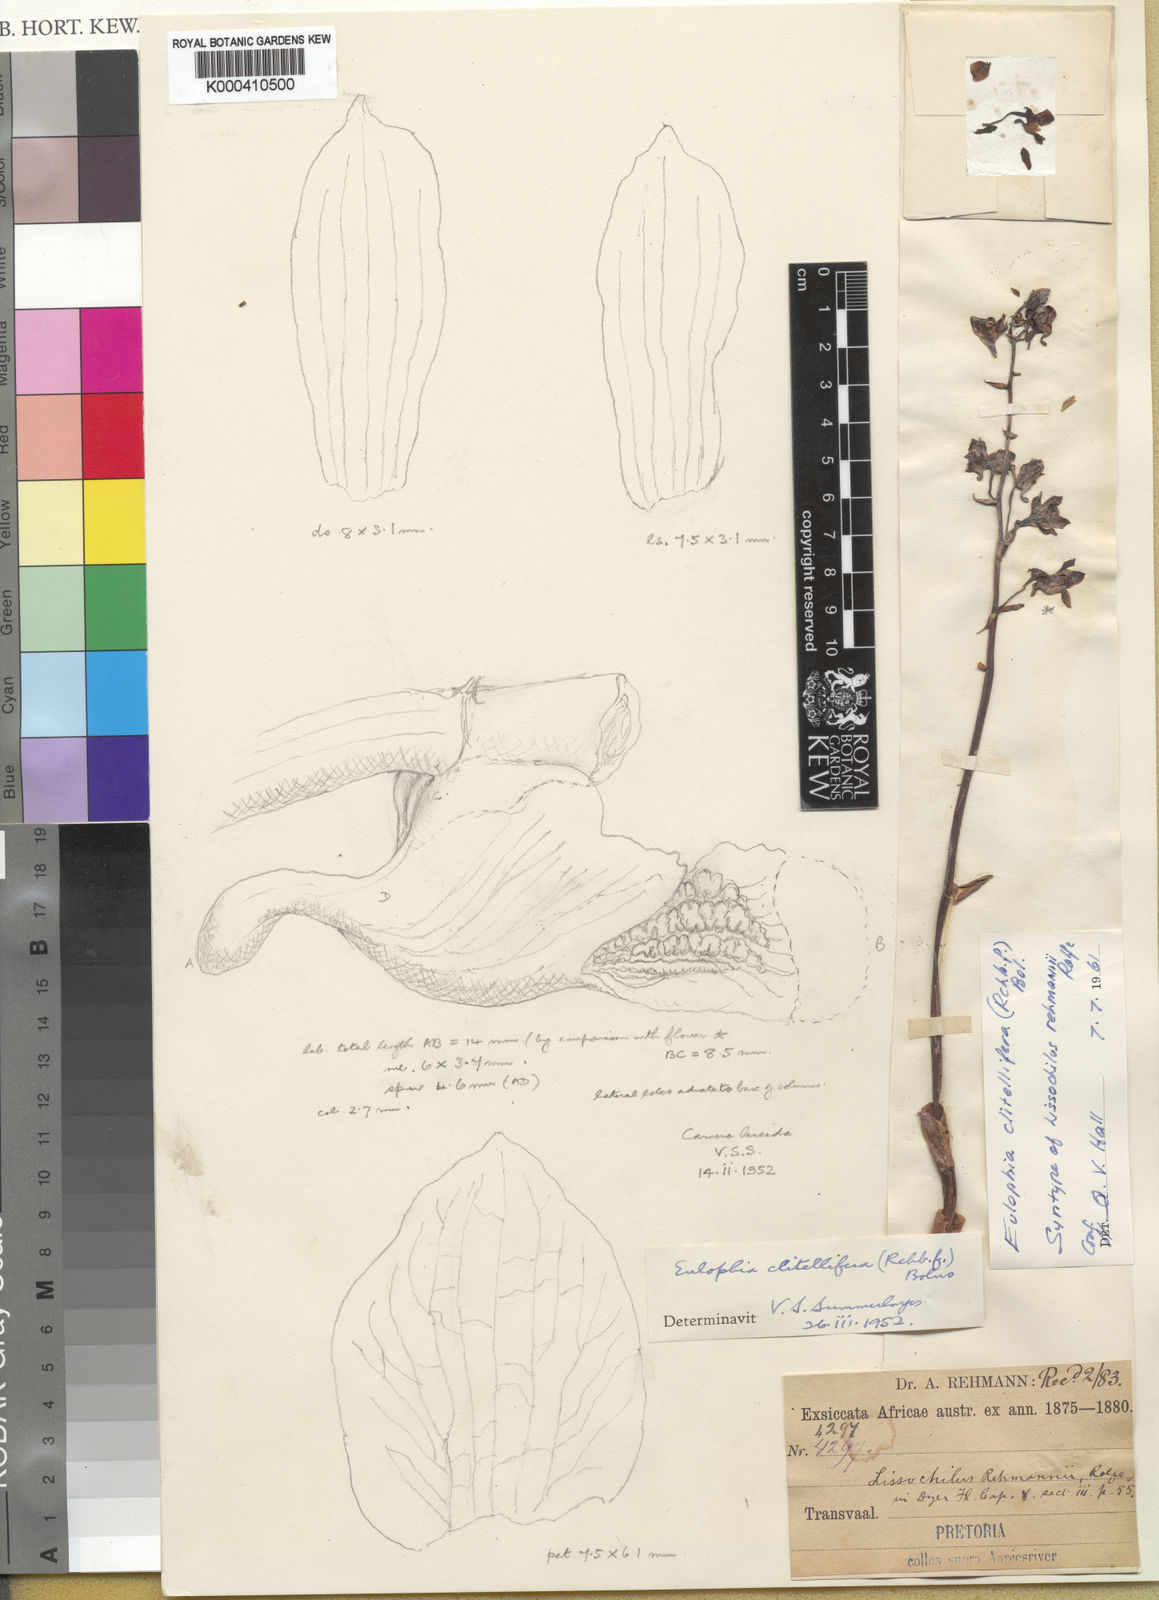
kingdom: Plantae
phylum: Tracheophyta
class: Liliopsida
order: Asparagales
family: Orchidaceae
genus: Eulophia
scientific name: Eulophia
